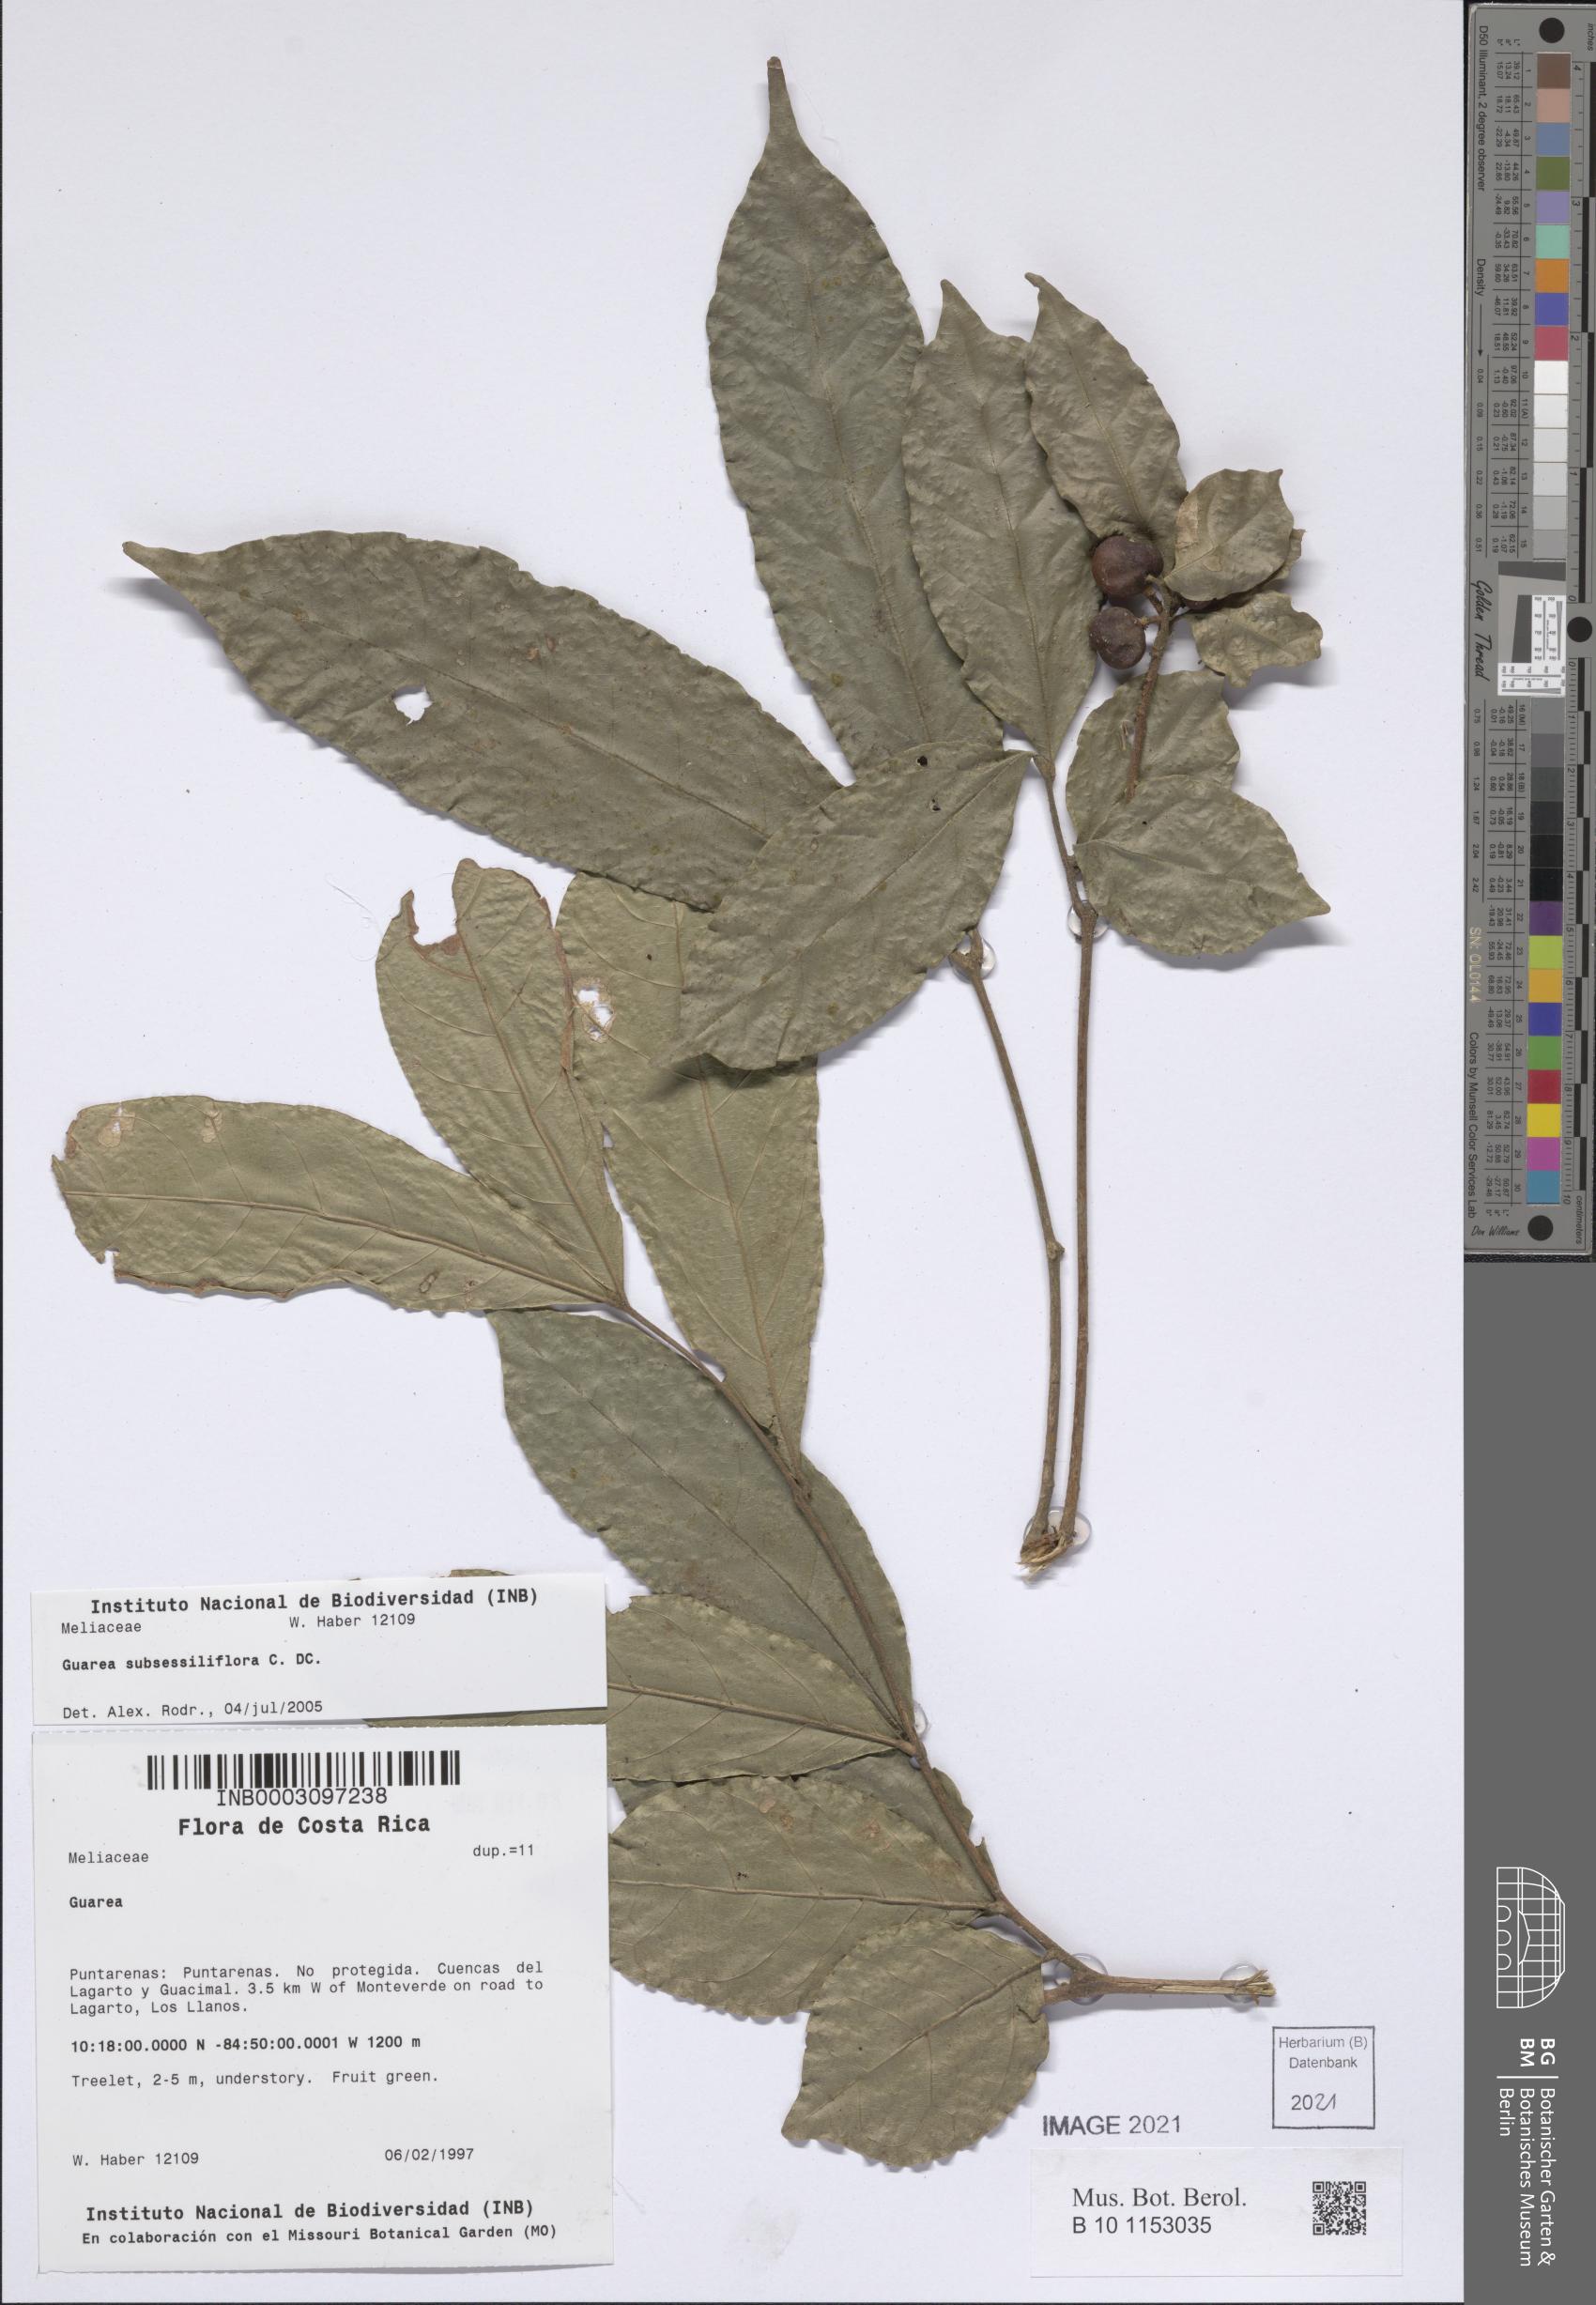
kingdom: Plantae
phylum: Tracheophyta
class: Magnoliopsida
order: Sapindales
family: Meliaceae
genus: Guarea
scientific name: Guarea subsessilifolia
